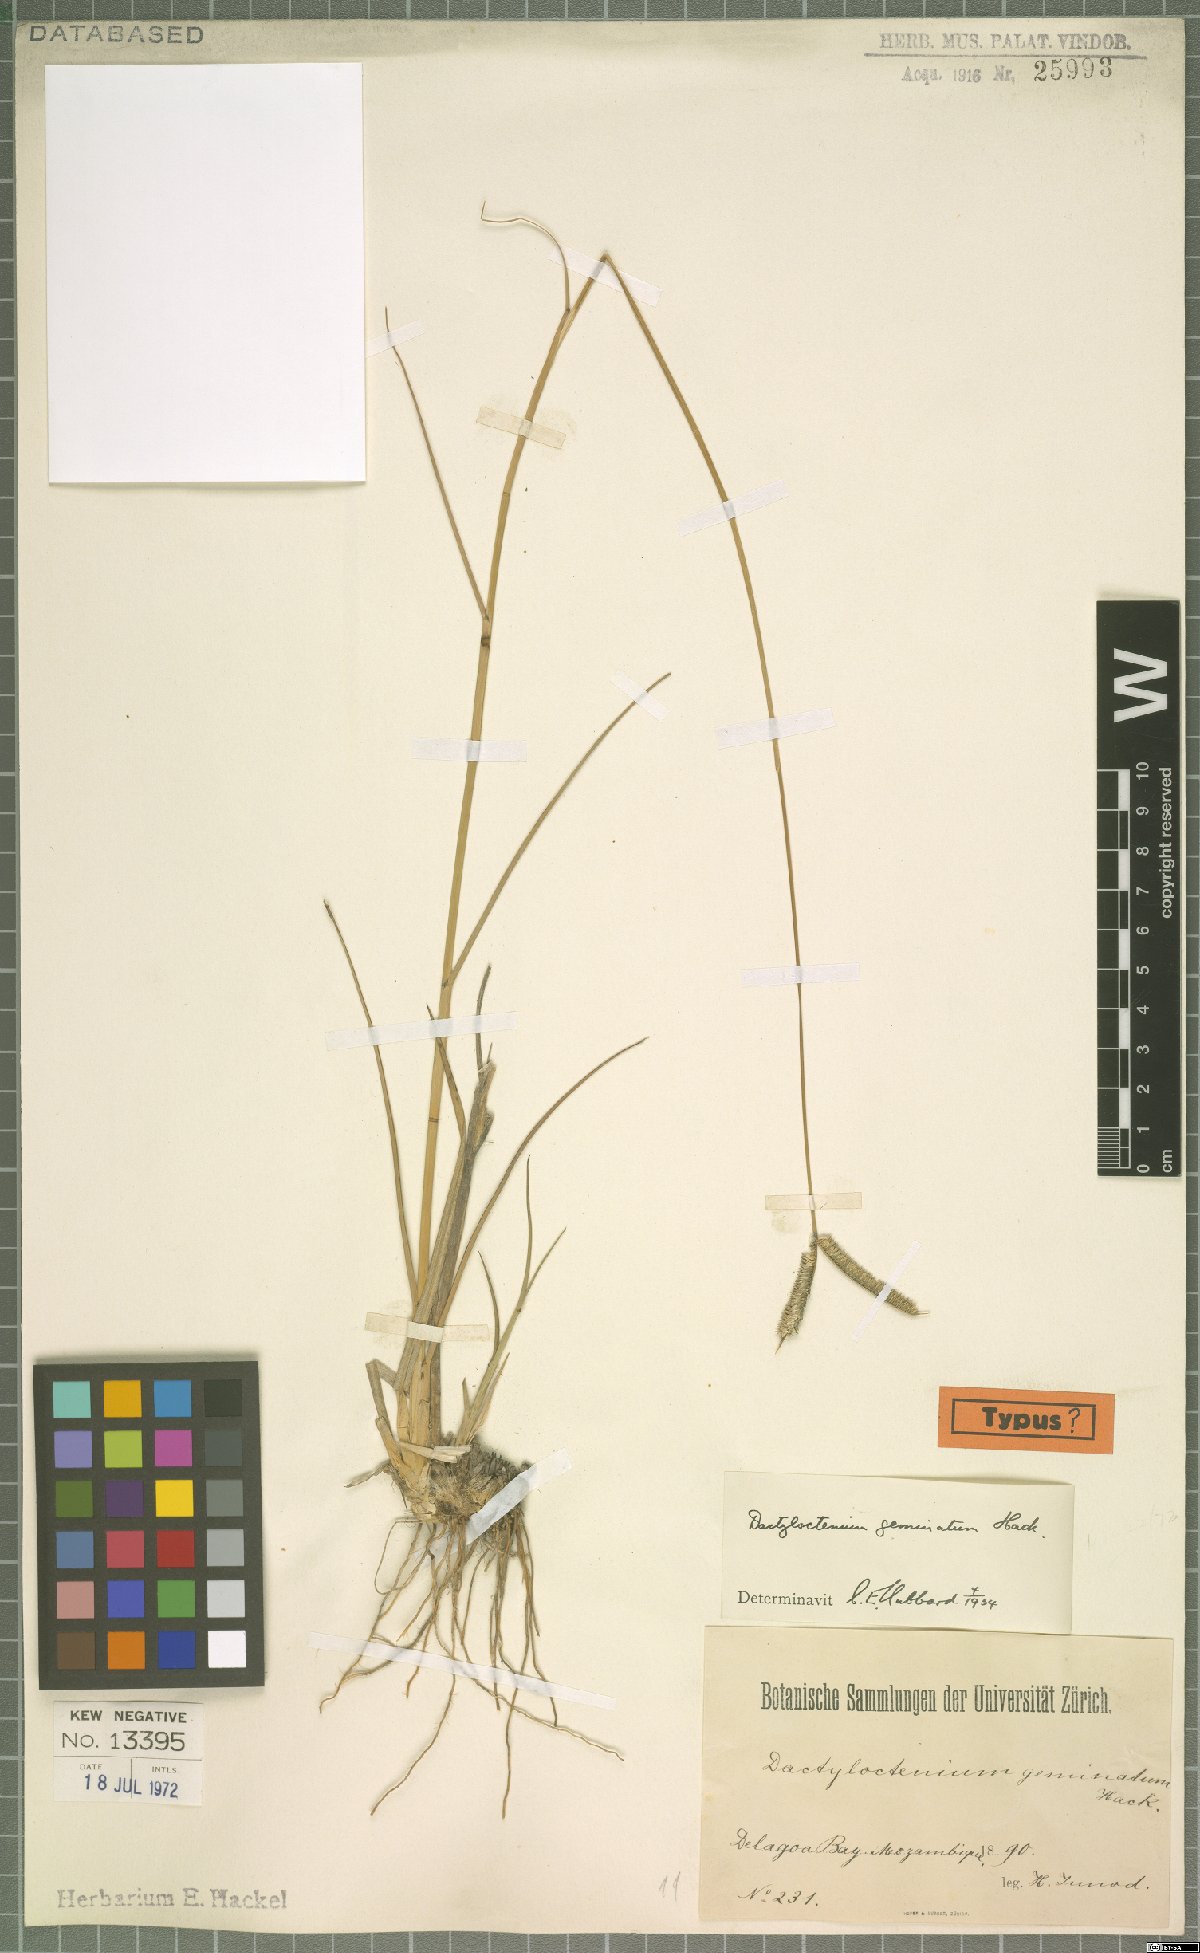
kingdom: Plantae
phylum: Tracheophyta
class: Liliopsida
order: Poales
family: Poaceae
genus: Dactyloctenium
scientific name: Dactyloctenium geminatum
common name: Crowsfoot grass
